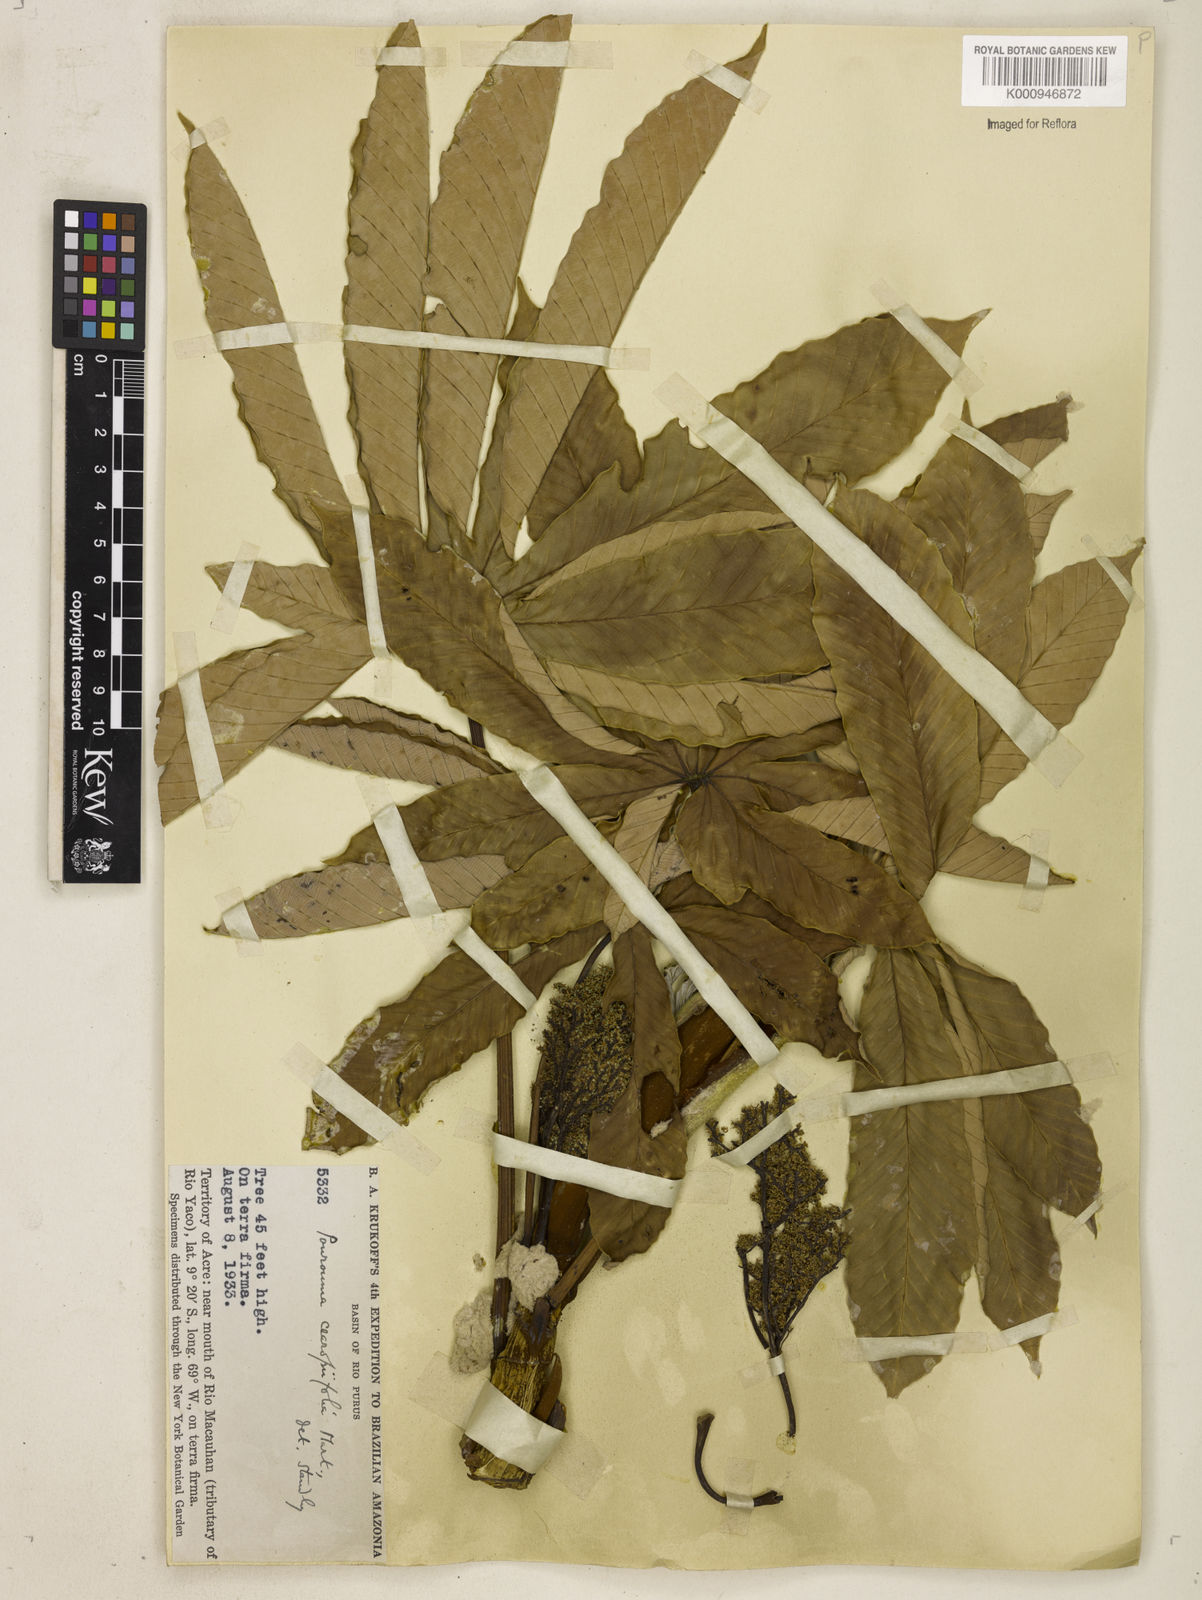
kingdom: Plantae
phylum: Tracheophyta
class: Magnoliopsida
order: Rosales
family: Urticaceae
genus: Pourouma
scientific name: Pourouma cecropiifolia
